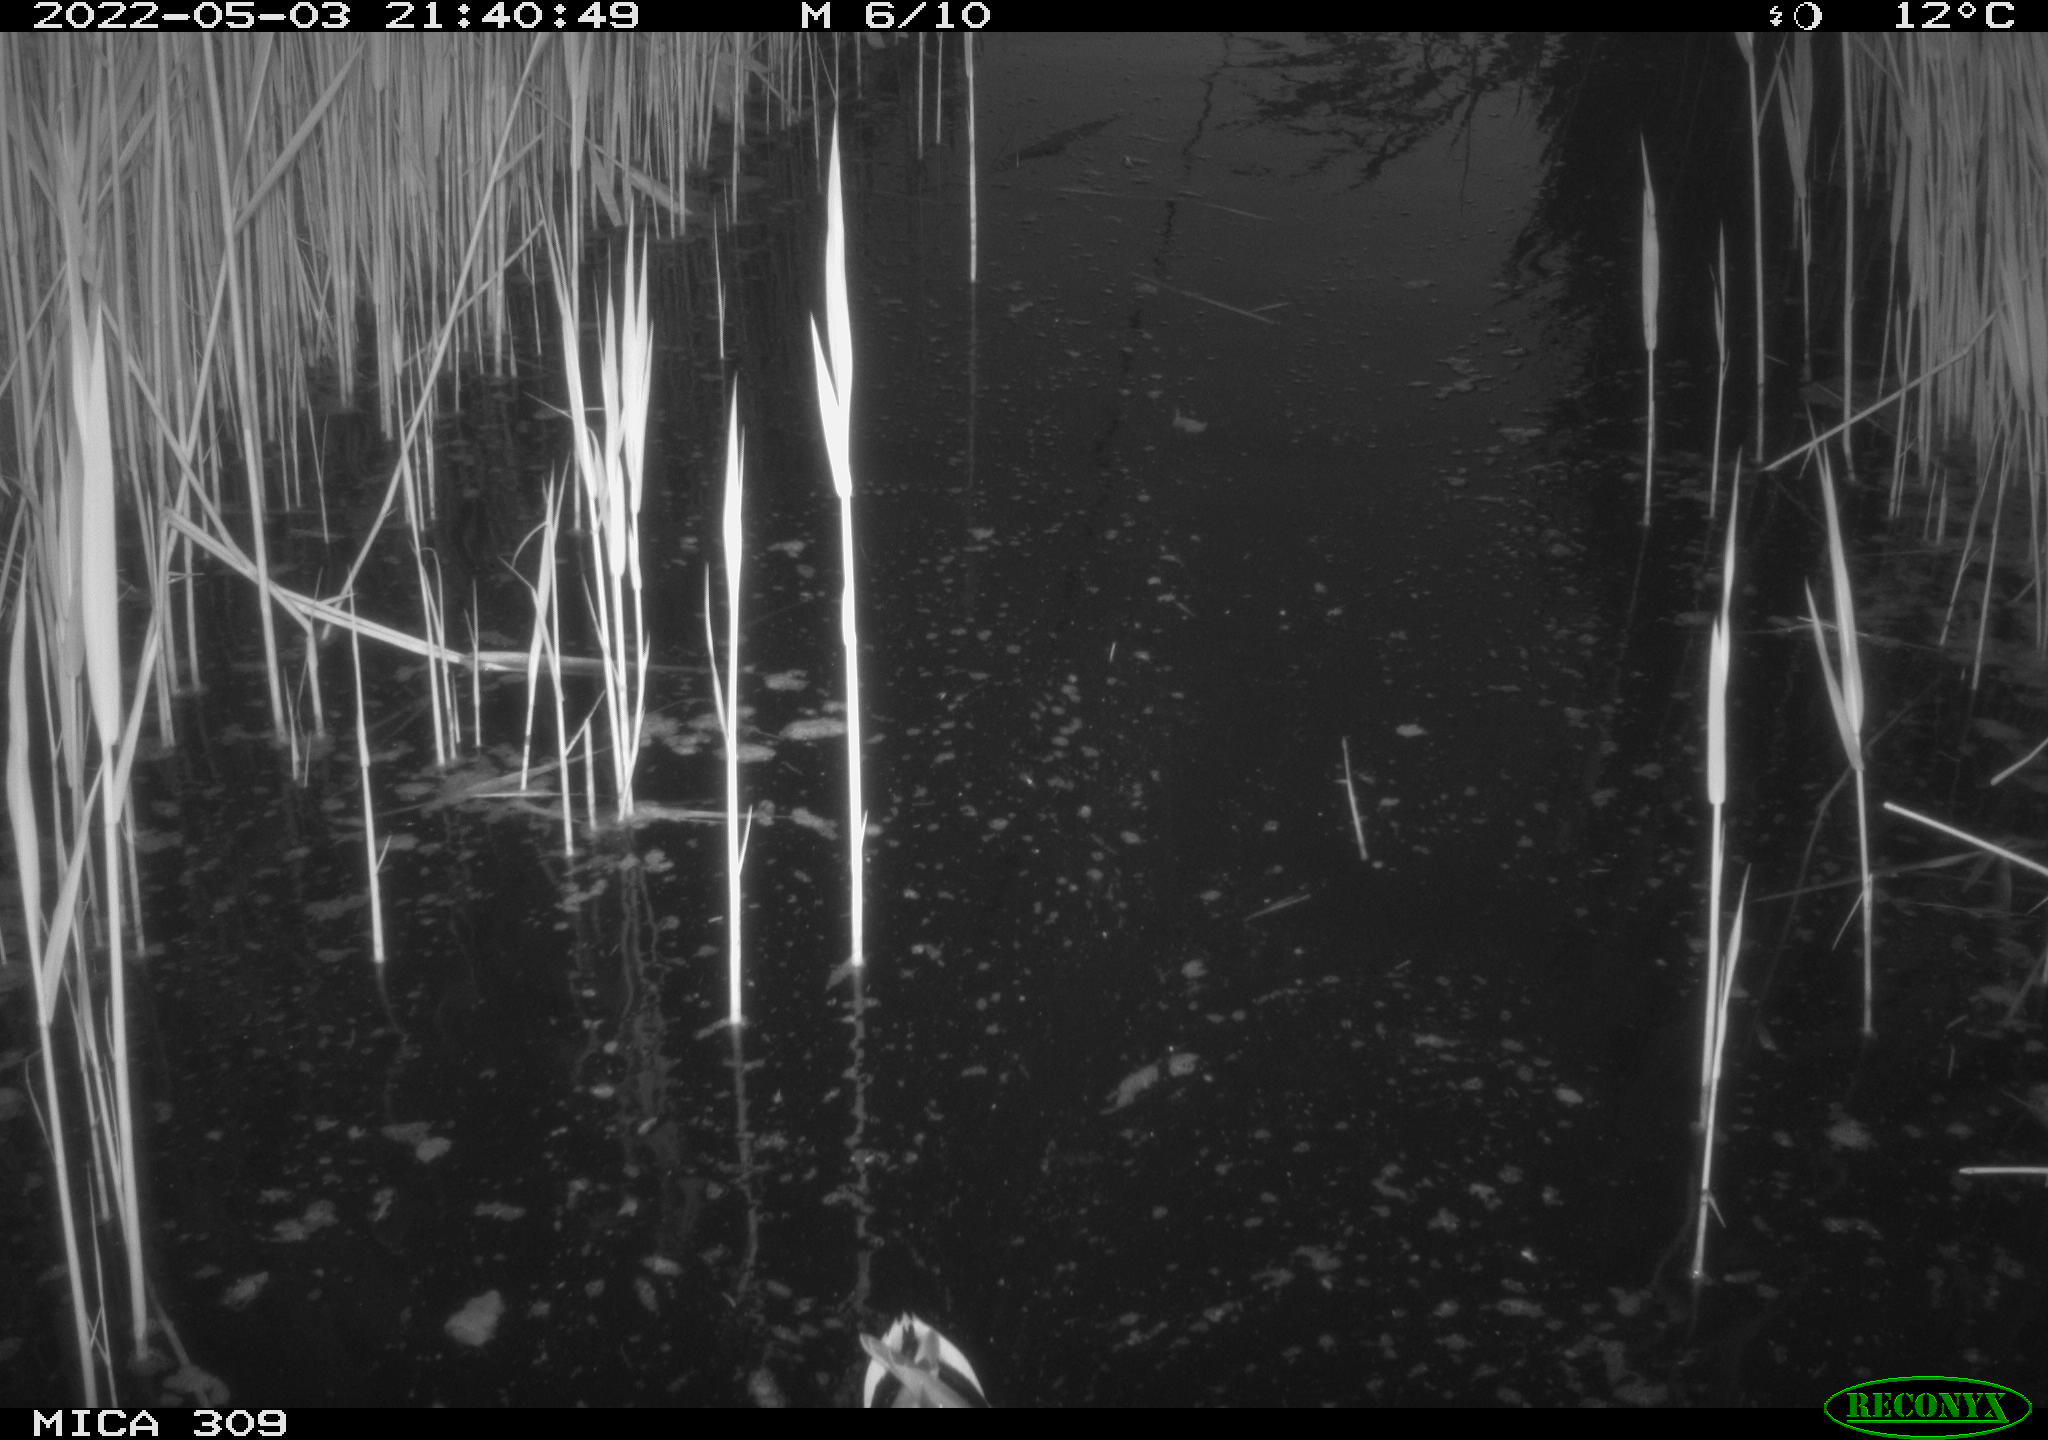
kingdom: Animalia
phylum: Chordata
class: Aves
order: Anseriformes
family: Anatidae
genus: Anas
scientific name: Anas platyrhynchos
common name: Mallard
